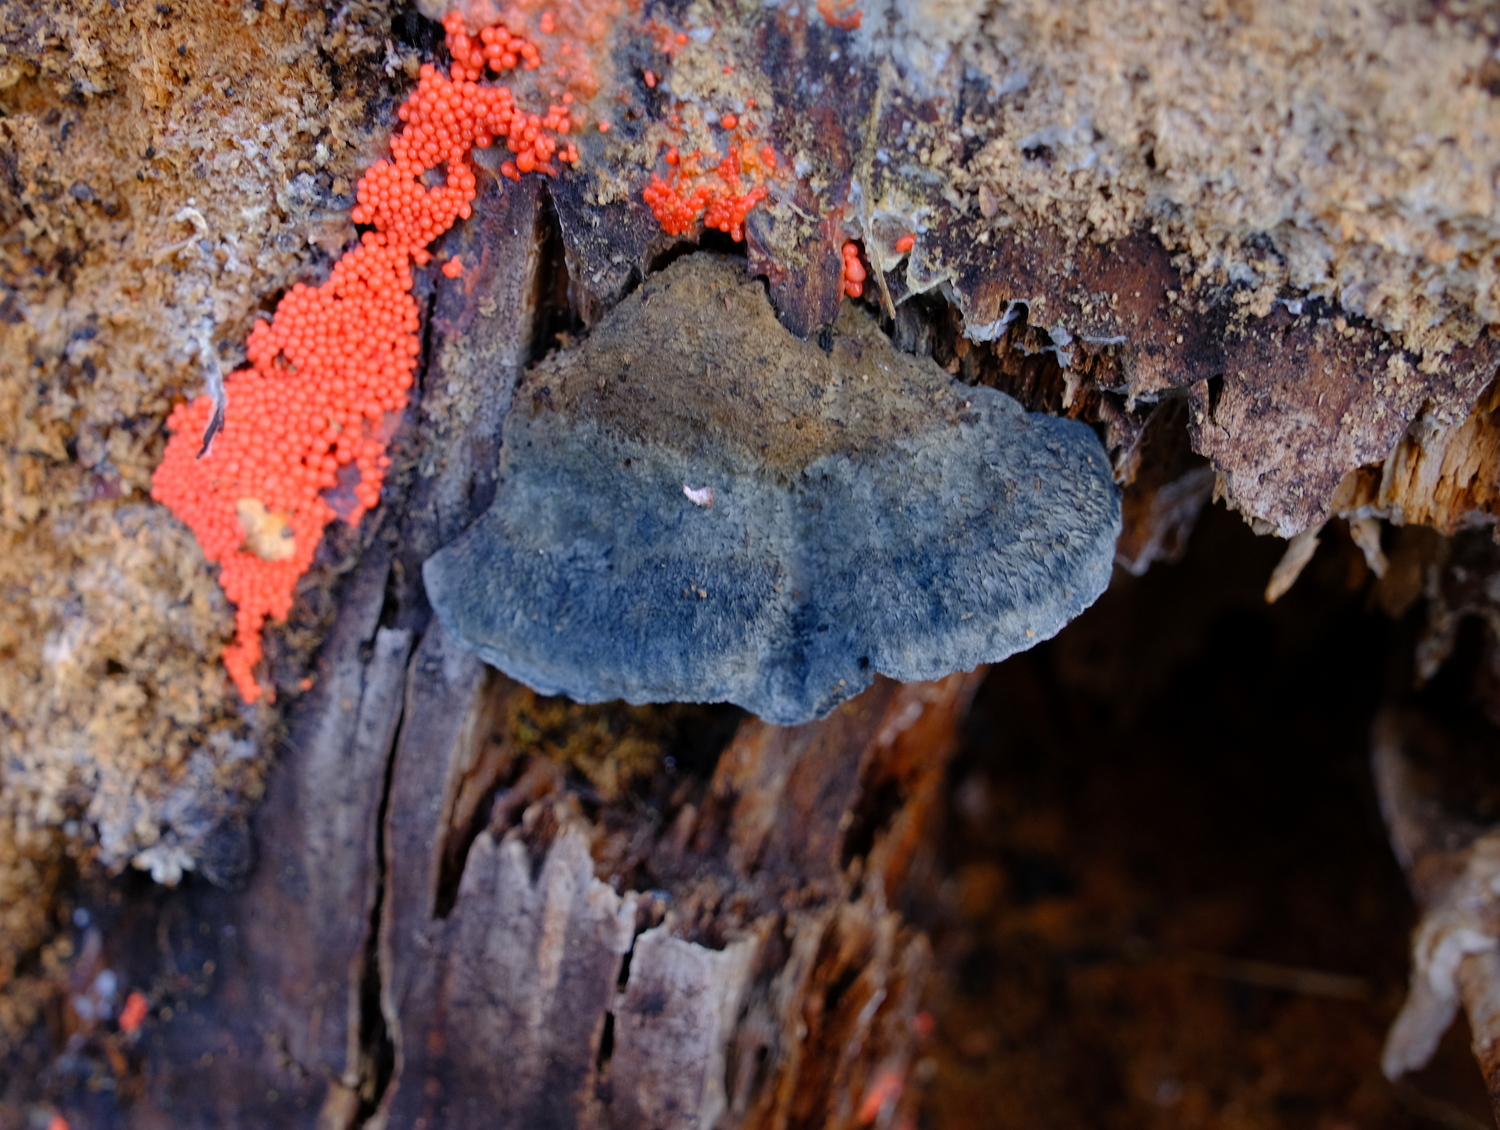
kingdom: Fungi
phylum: Basidiomycota
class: Agaricomycetes
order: Polyporales
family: Polyporaceae
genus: Cyanosporus
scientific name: Cyanosporus caesius
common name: blålig kødporesvamp
